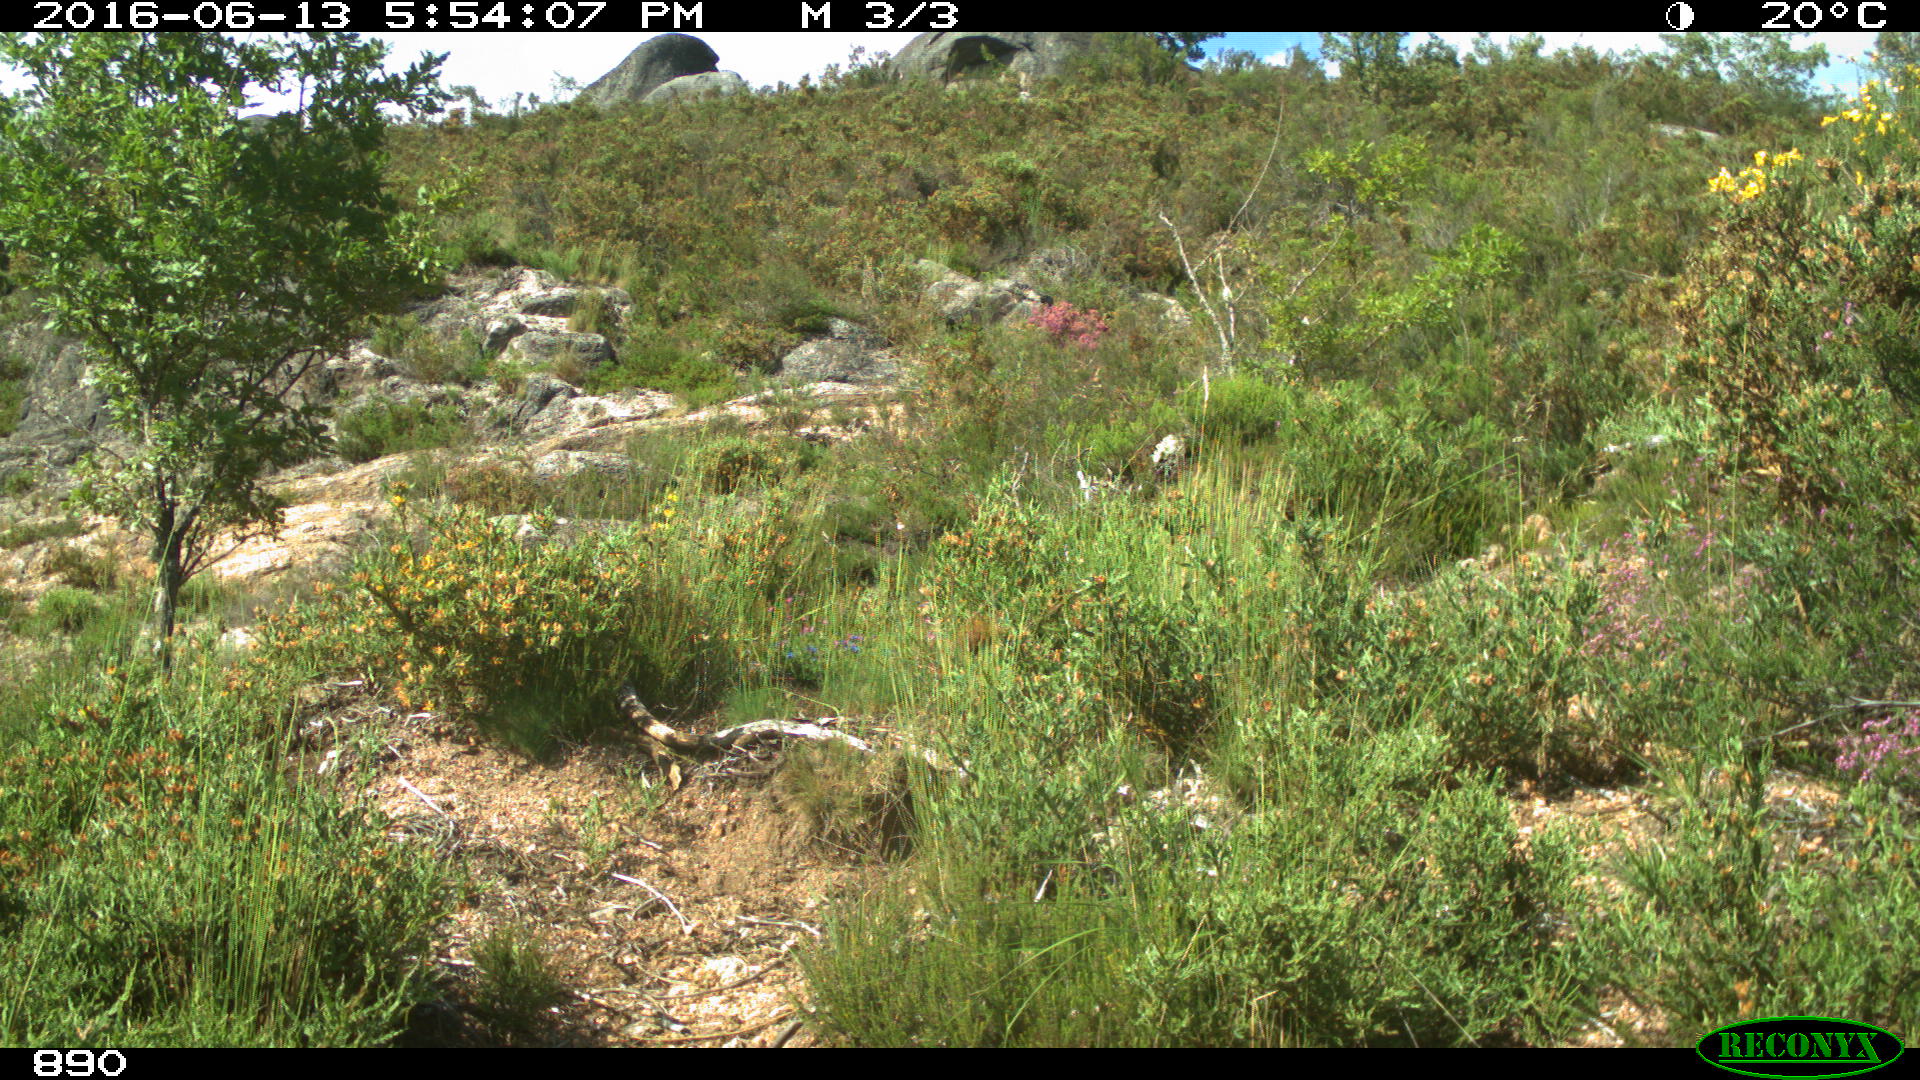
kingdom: Animalia
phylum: Chordata
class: Mammalia
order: Artiodactyla
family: Cervidae
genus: Capreolus
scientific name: Capreolus capreolus
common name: Western roe deer
